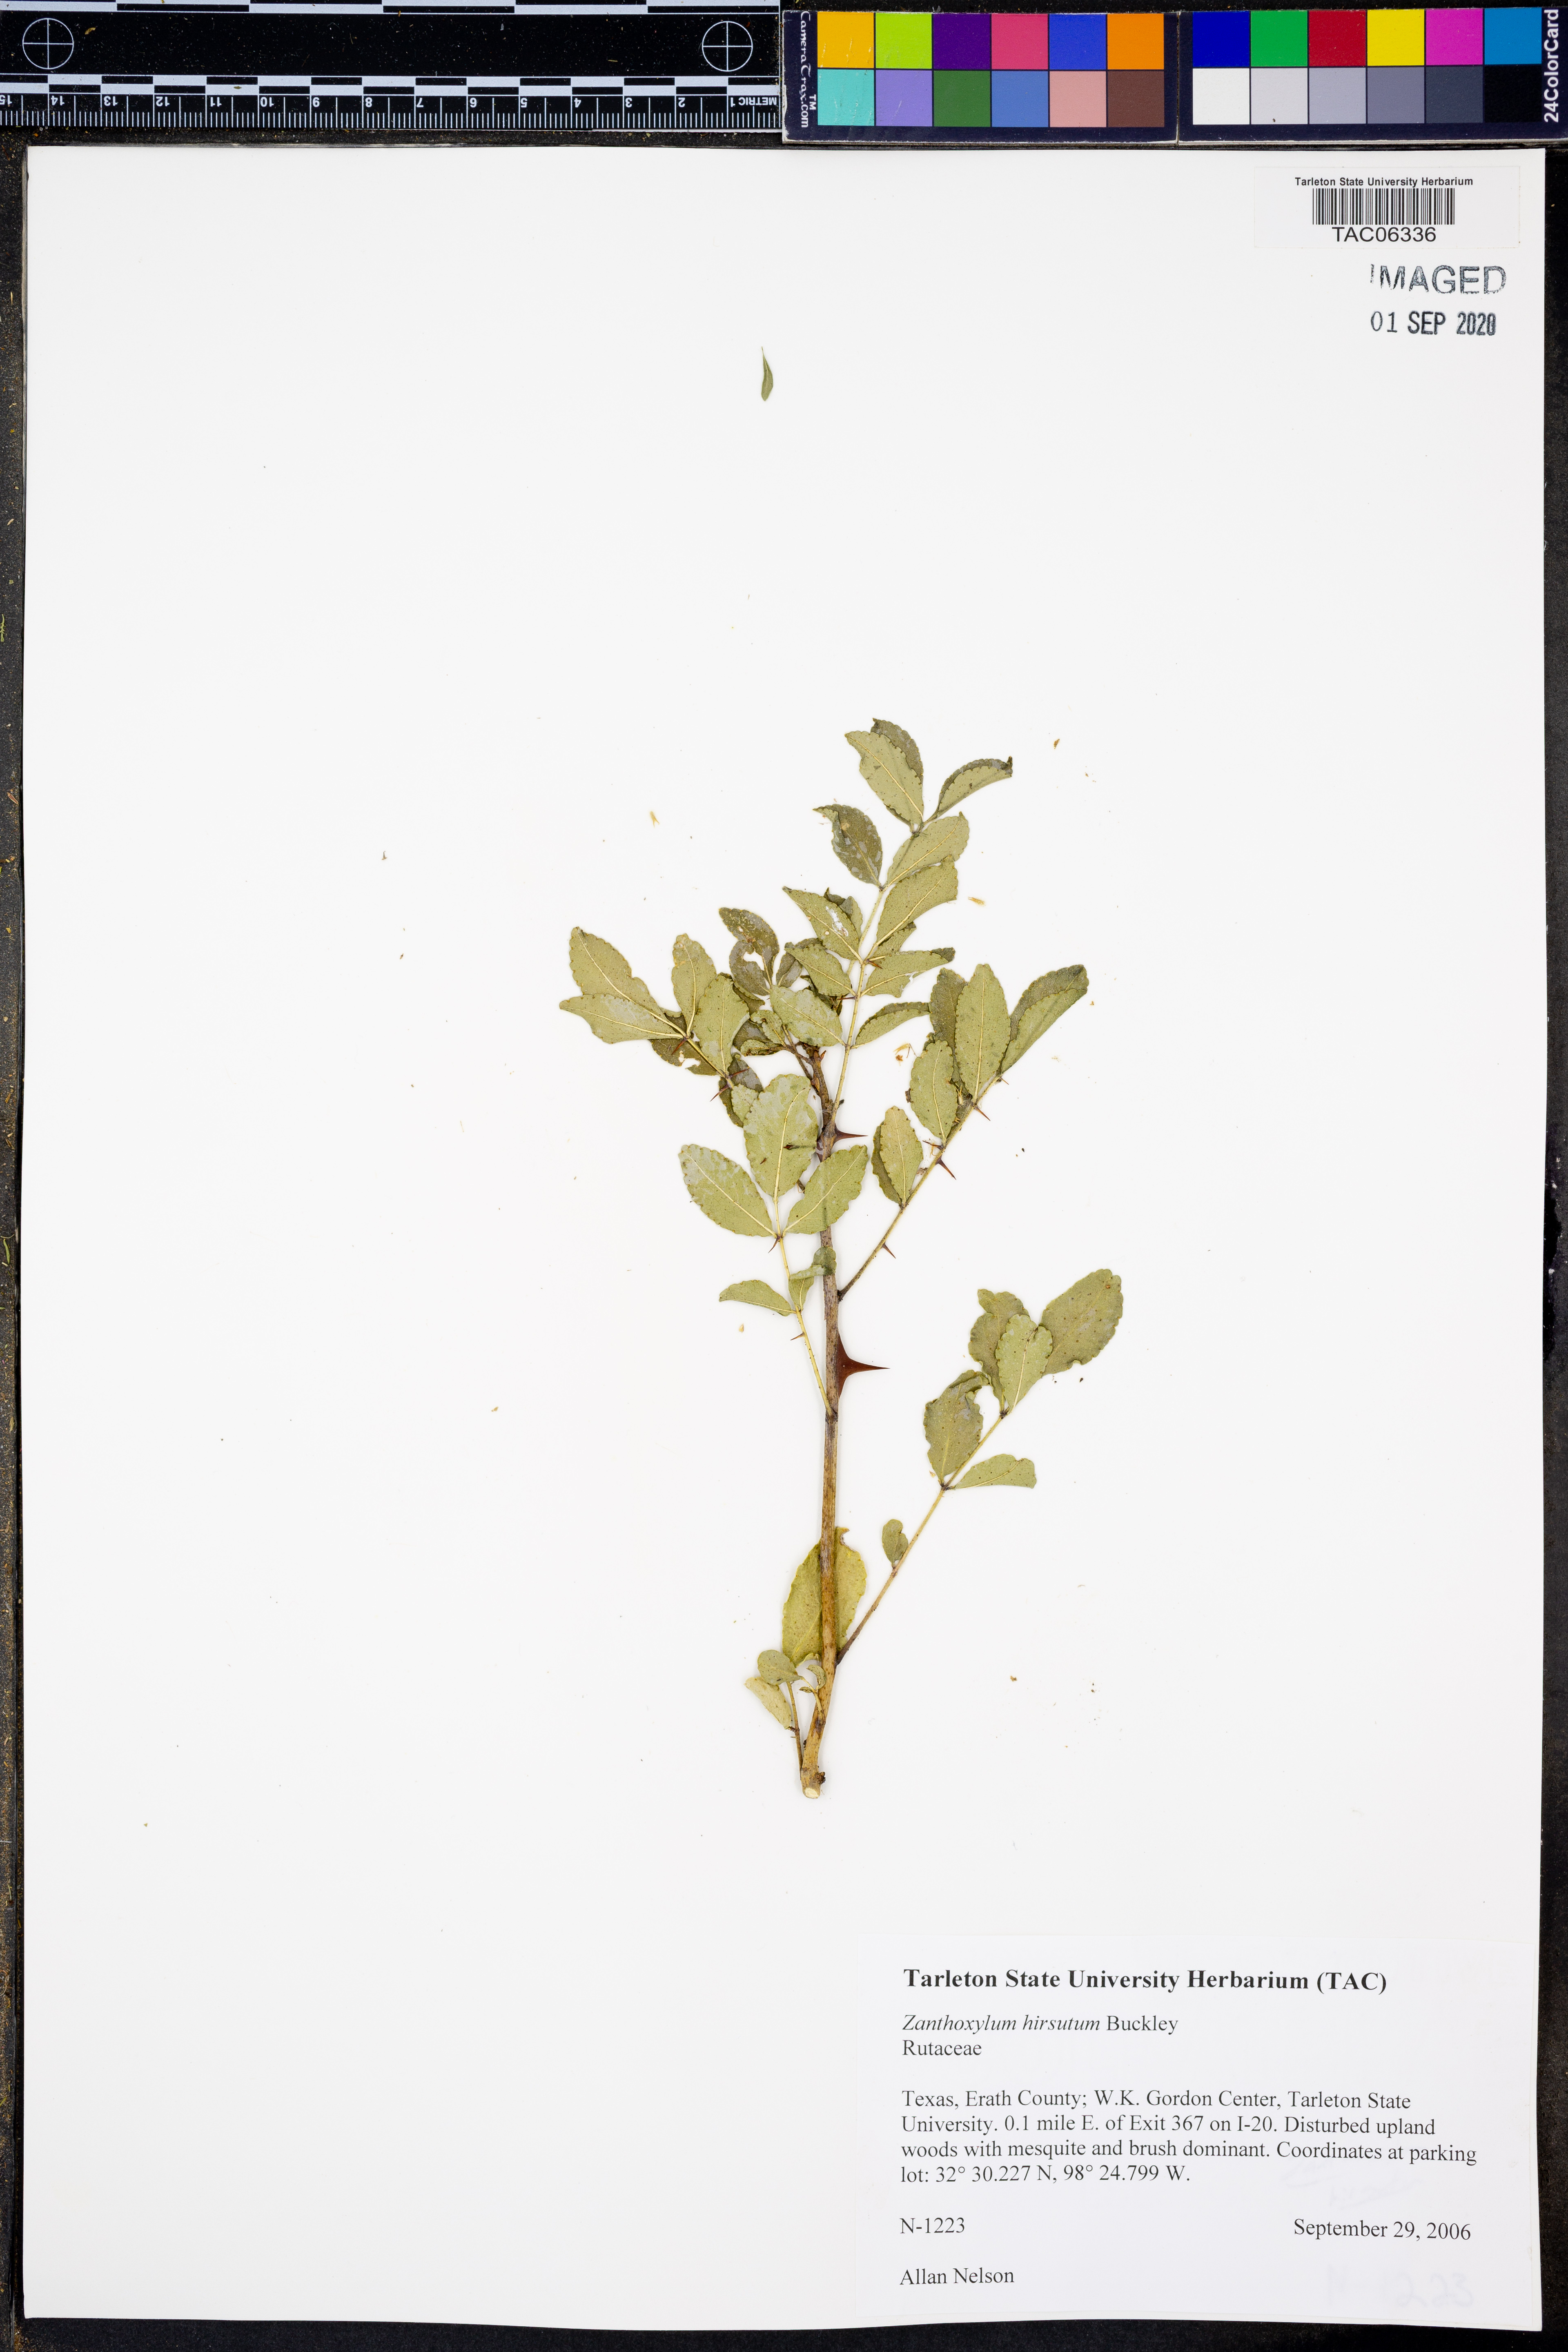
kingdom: Plantae
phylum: Tracheophyta
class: Magnoliopsida
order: Sapindales
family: Rutaceae
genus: Zanthoxylum
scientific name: Zanthoxylum clava-herculis
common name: Hercules'-club
